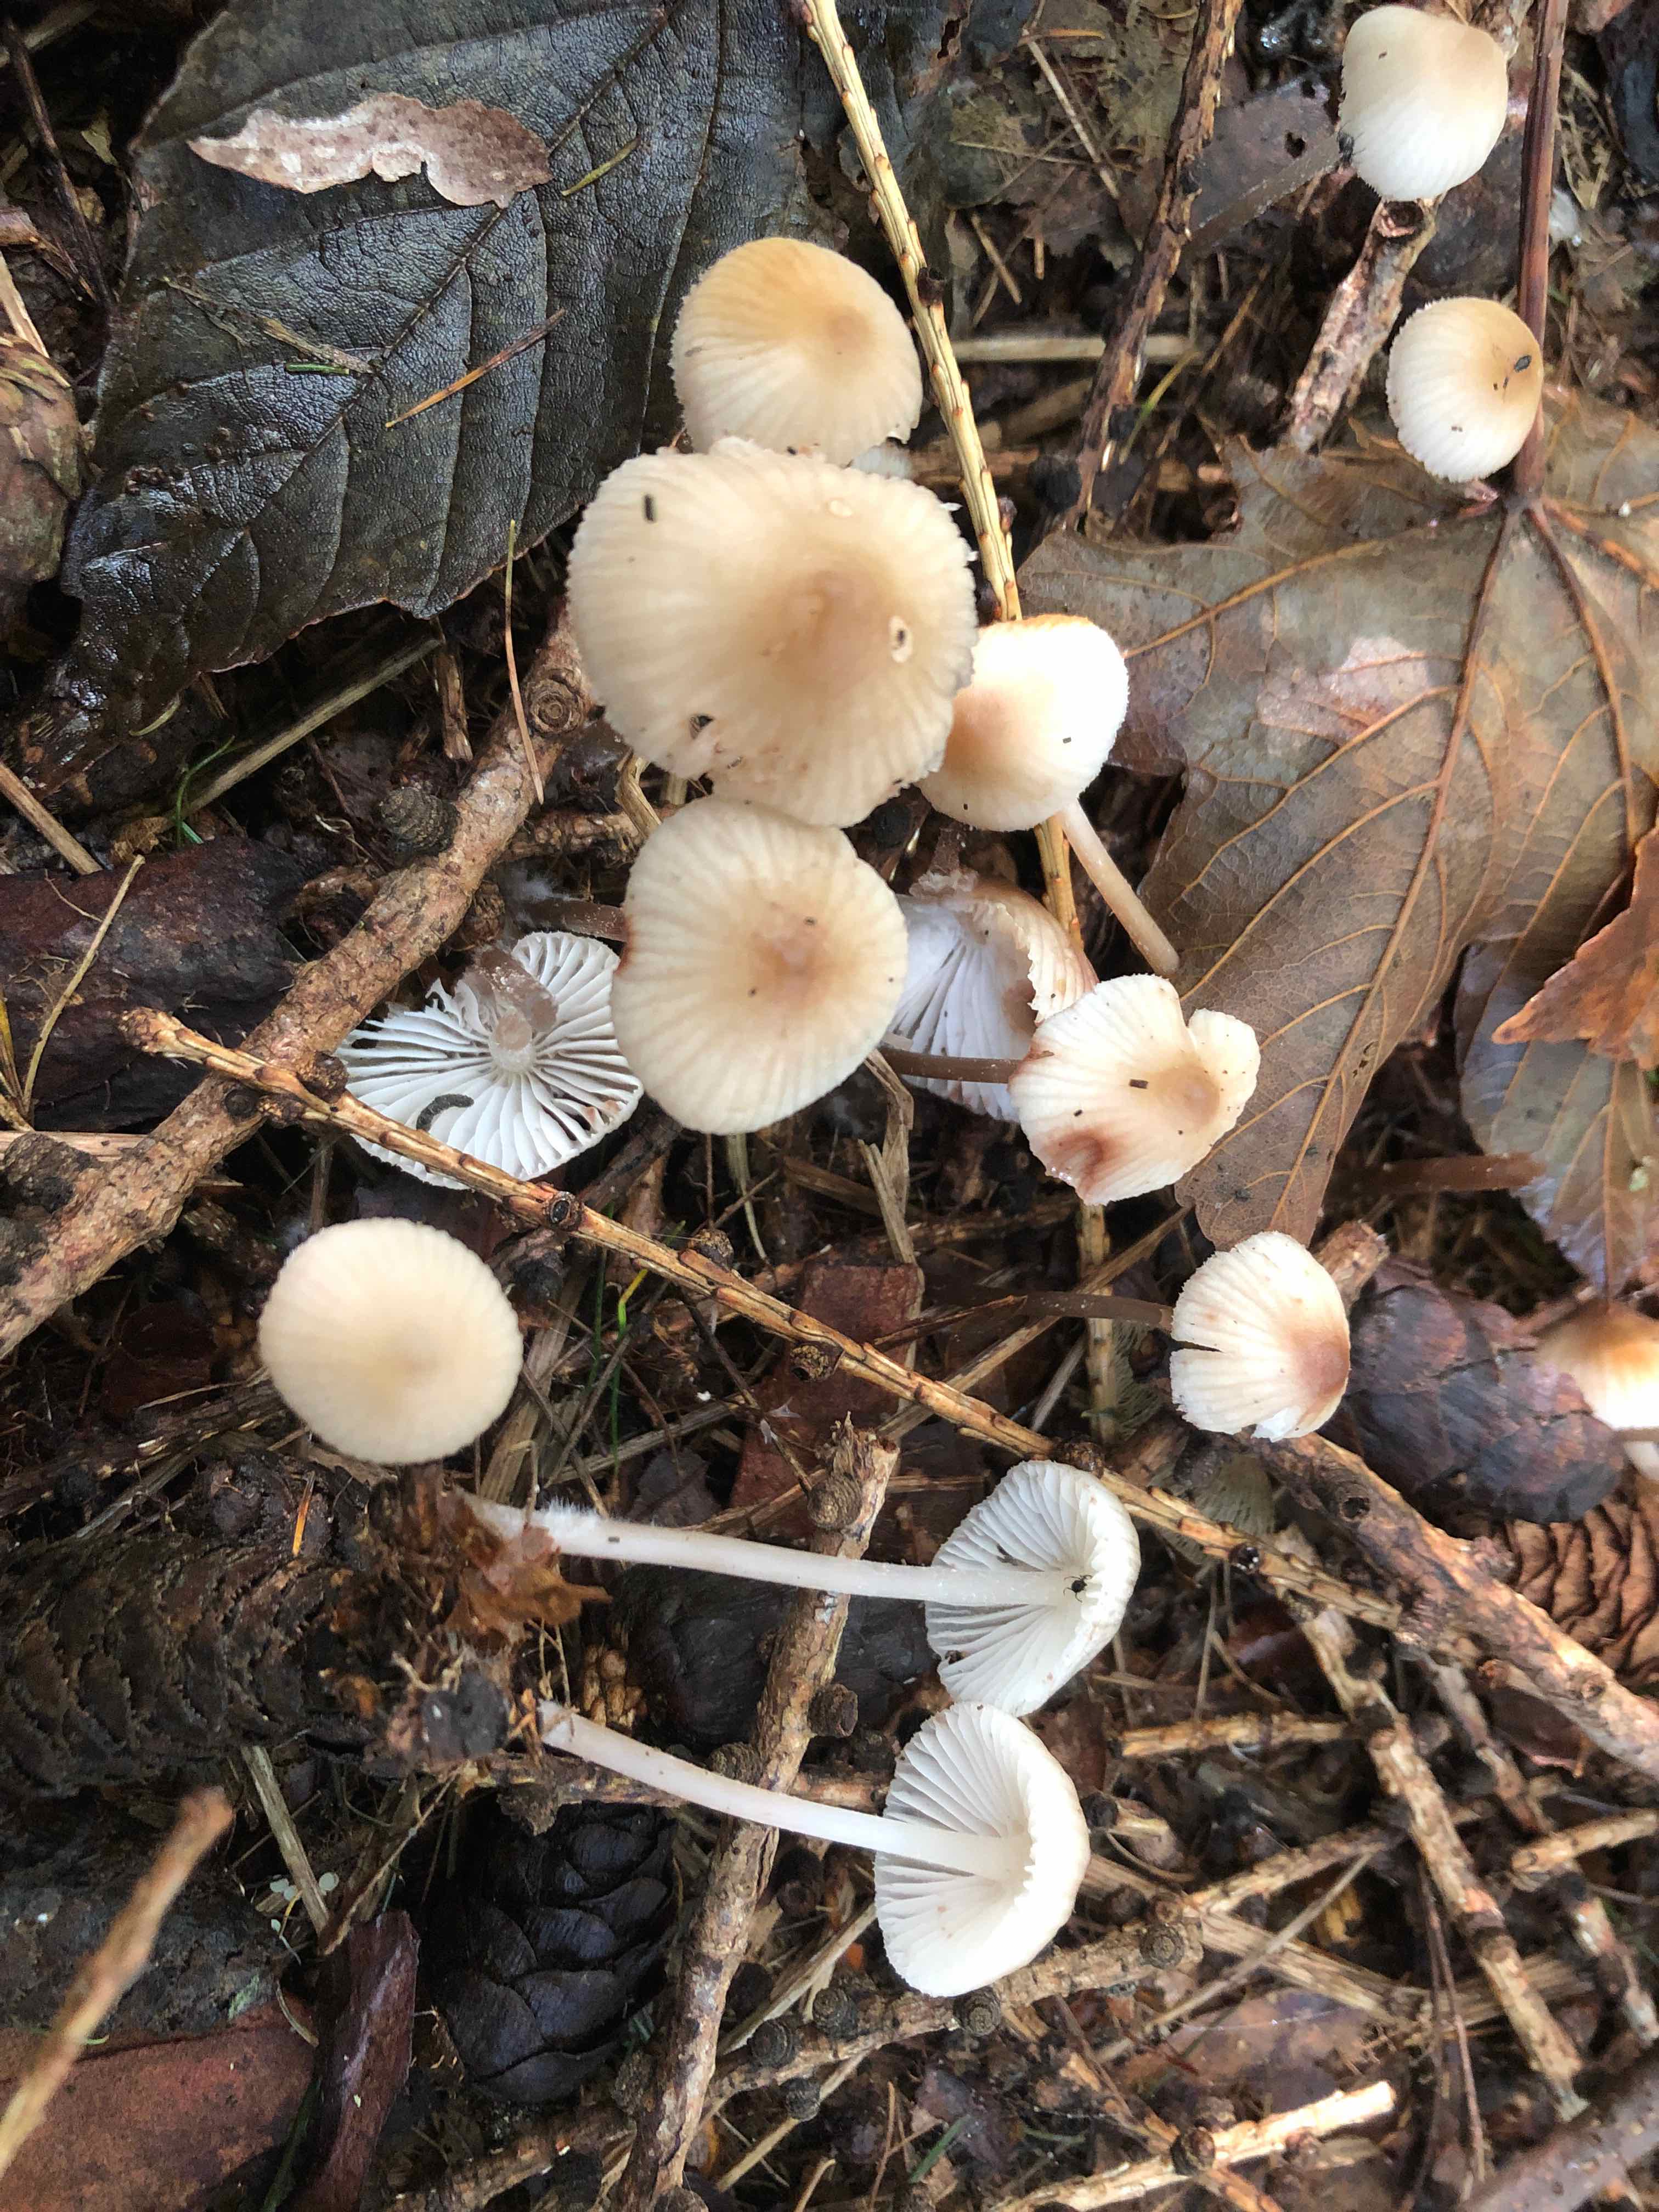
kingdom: Fungi
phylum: Basidiomycota
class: Agaricomycetes
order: Agaricales
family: Mycenaceae
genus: Mycena
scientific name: Mycena zephirus
